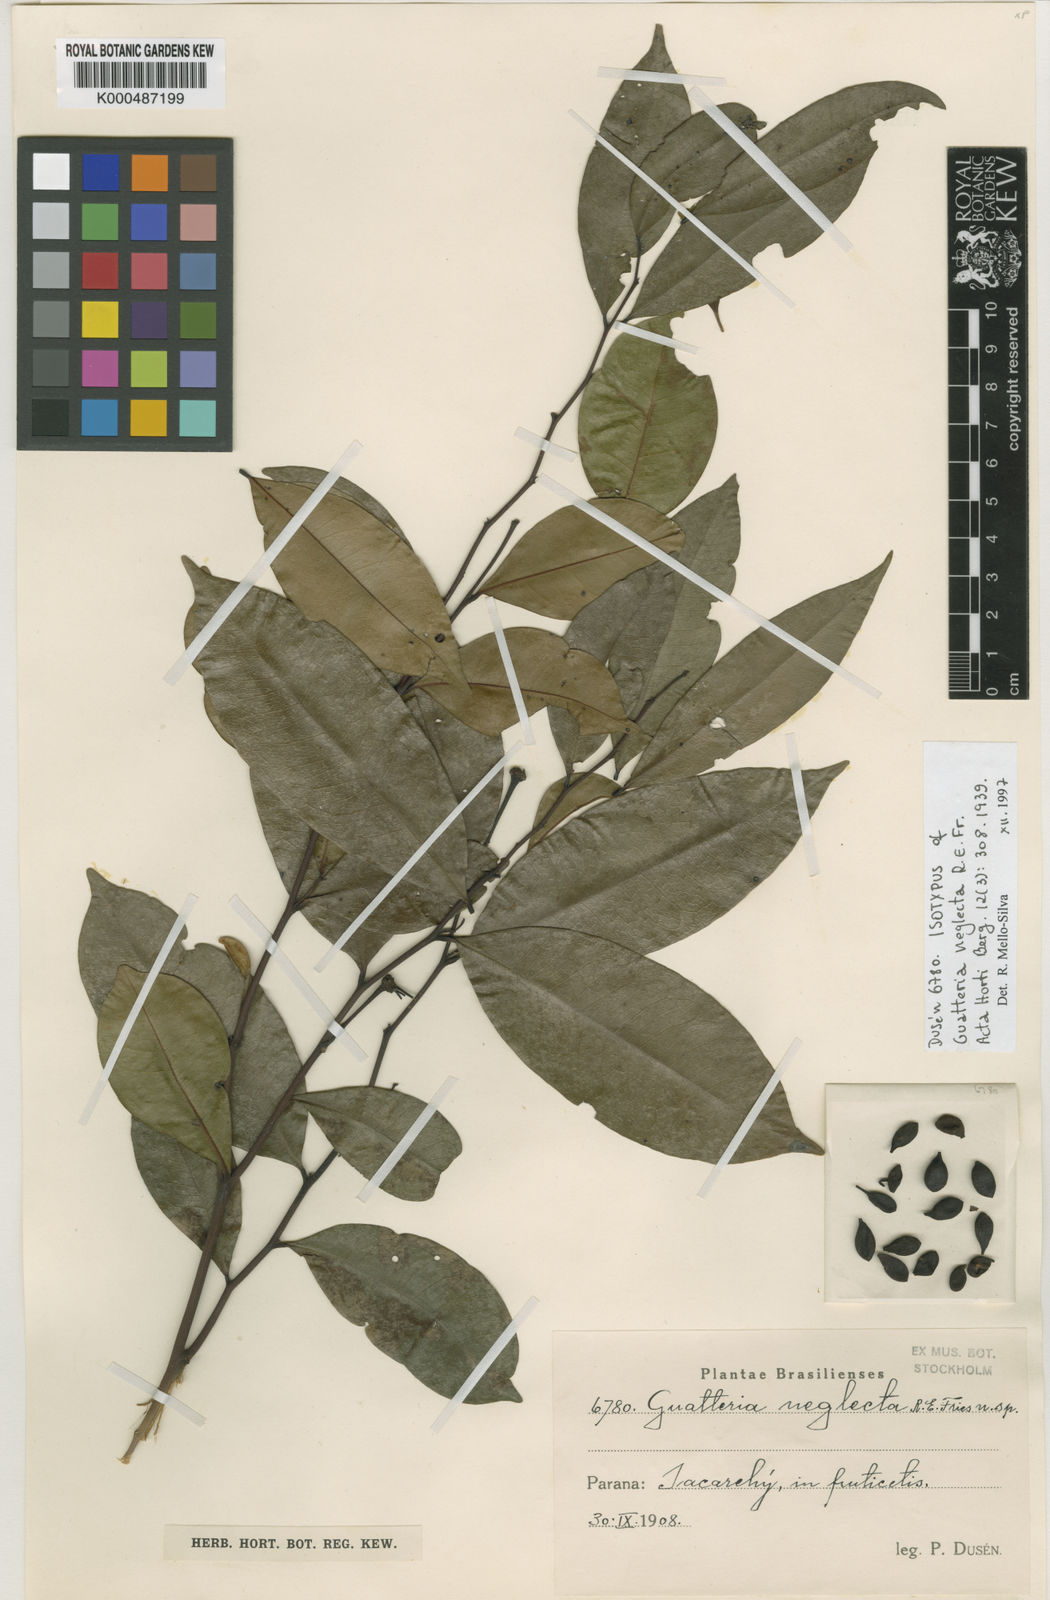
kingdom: Plantae
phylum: Tracheophyta
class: Magnoliopsida
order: Magnoliales
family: Annonaceae
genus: Guatteria
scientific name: Guatteria australis
